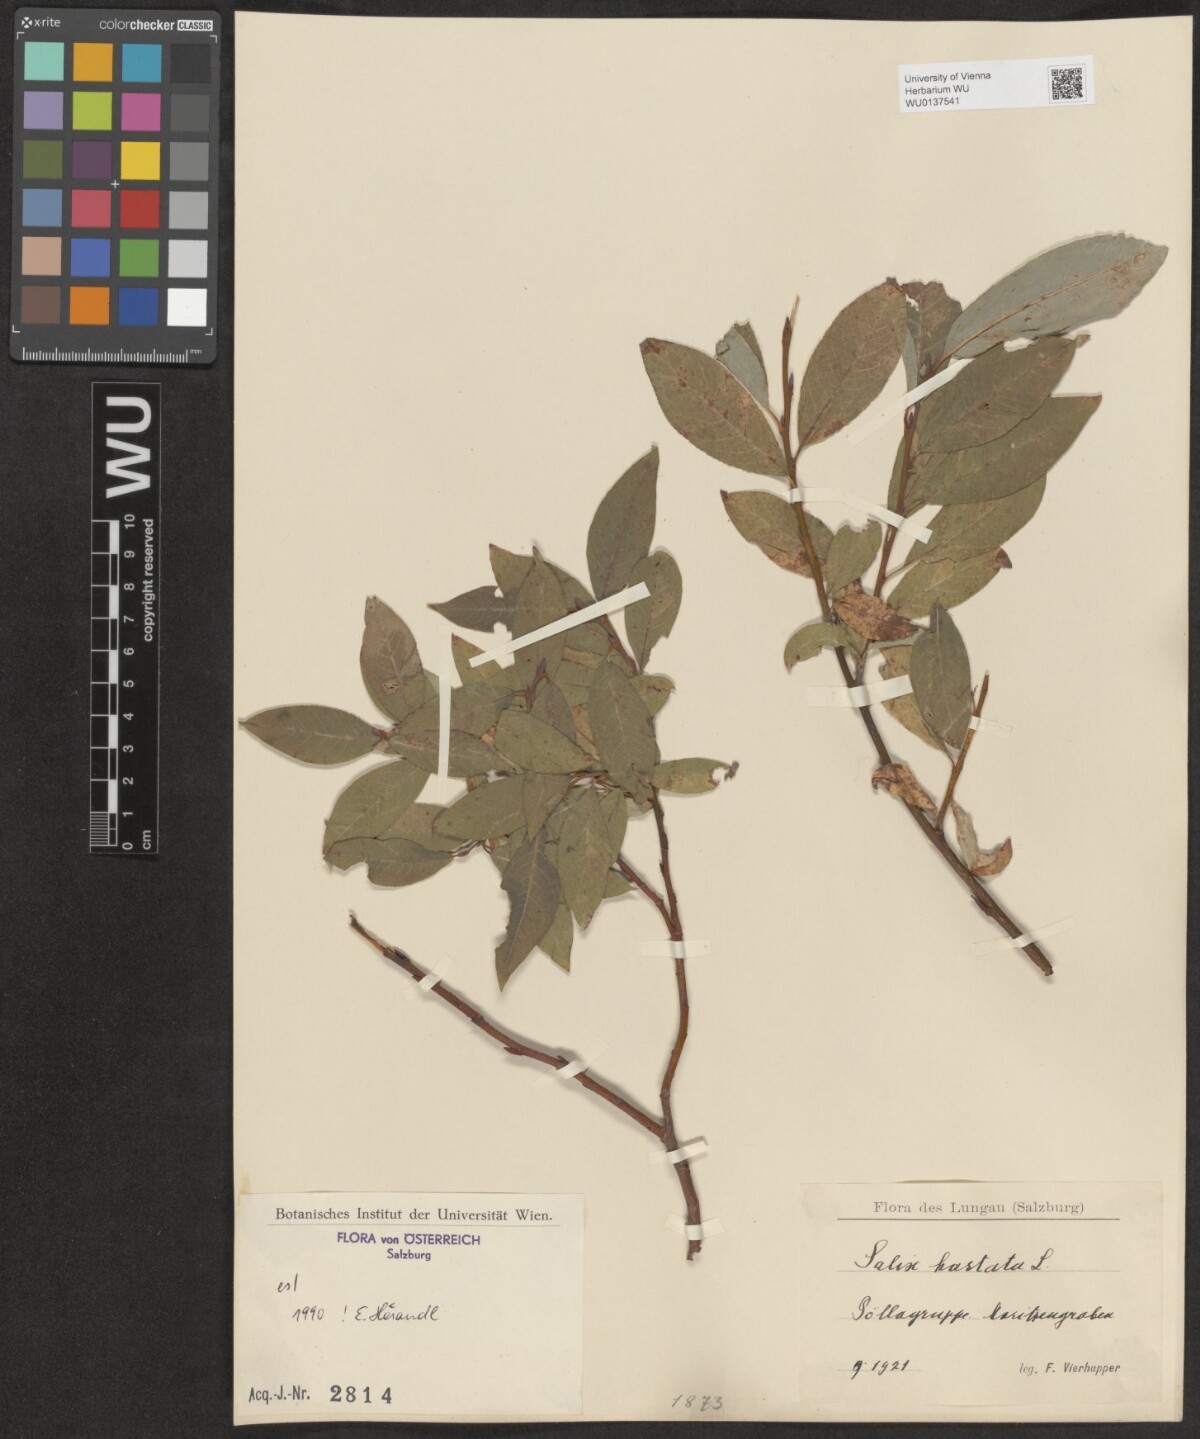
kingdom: Plantae
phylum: Tracheophyta
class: Magnoliopsida
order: Malpighiales
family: Salicaceae
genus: Salix
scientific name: Salix hastata
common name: Halberd willow
